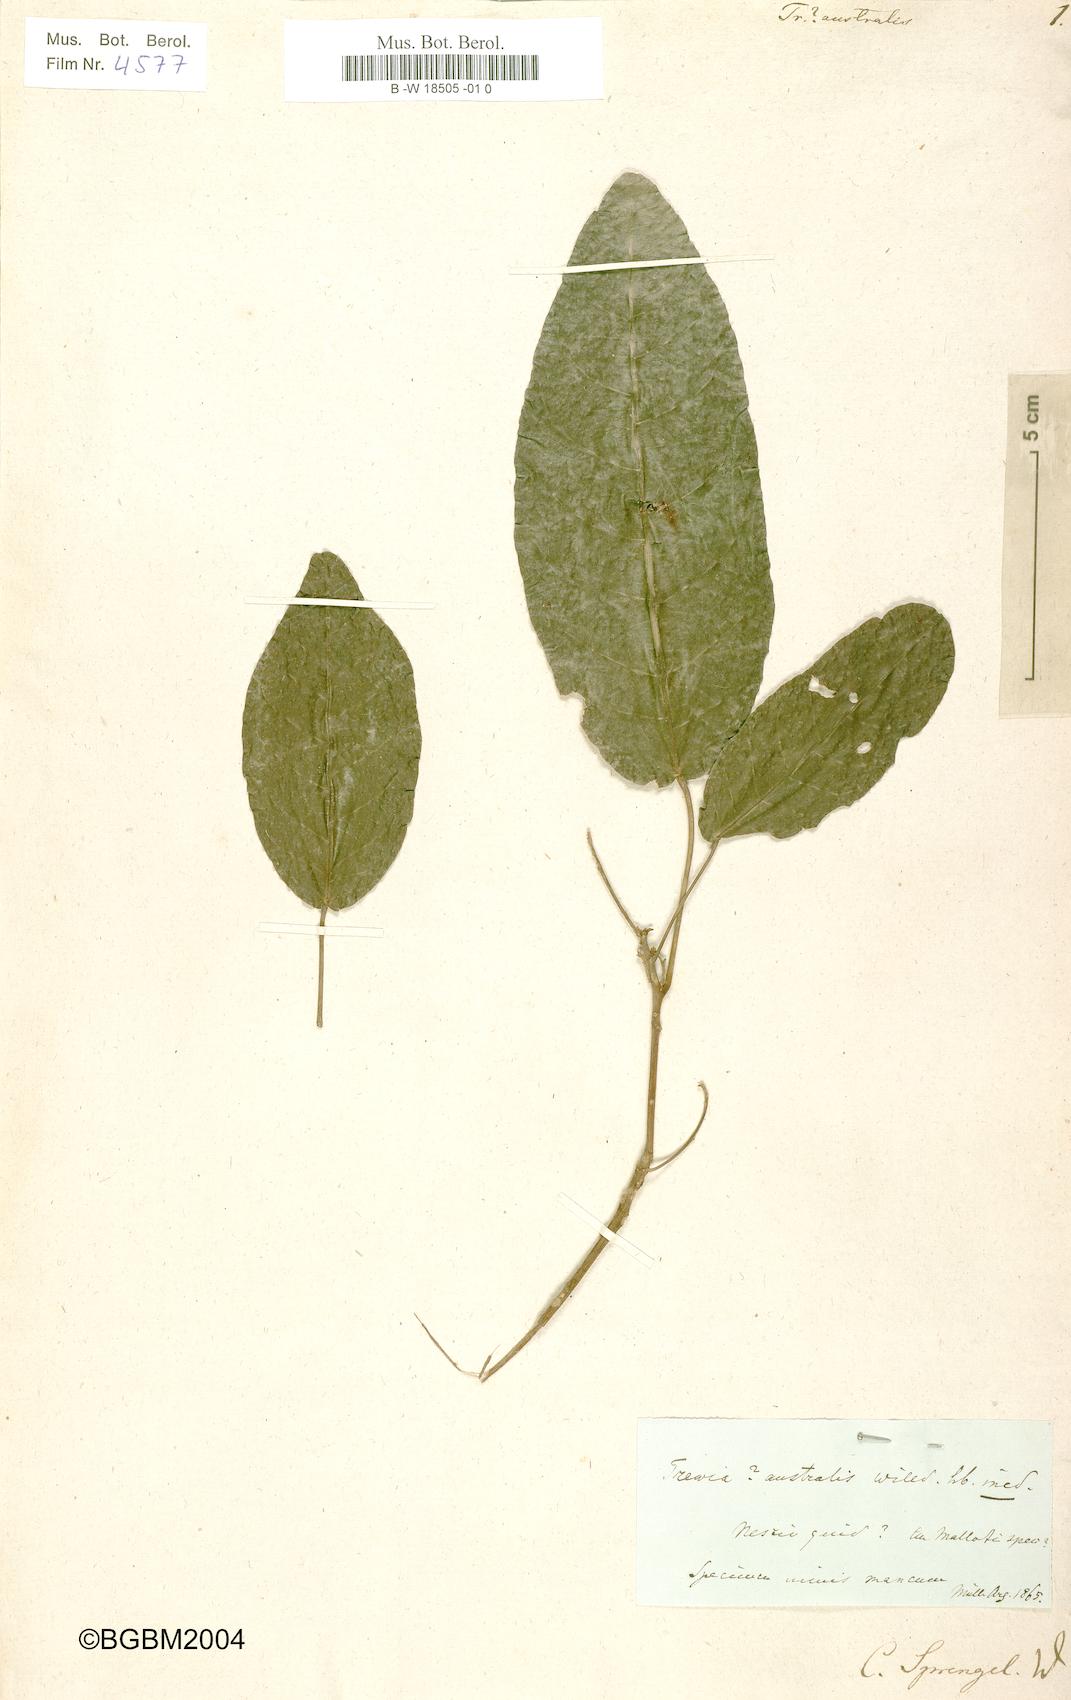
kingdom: Plantae
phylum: Tracheophyta
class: Magnoliopsida
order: Malpighiales
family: Euphorbiaceae
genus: Trewia
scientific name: Trewia
